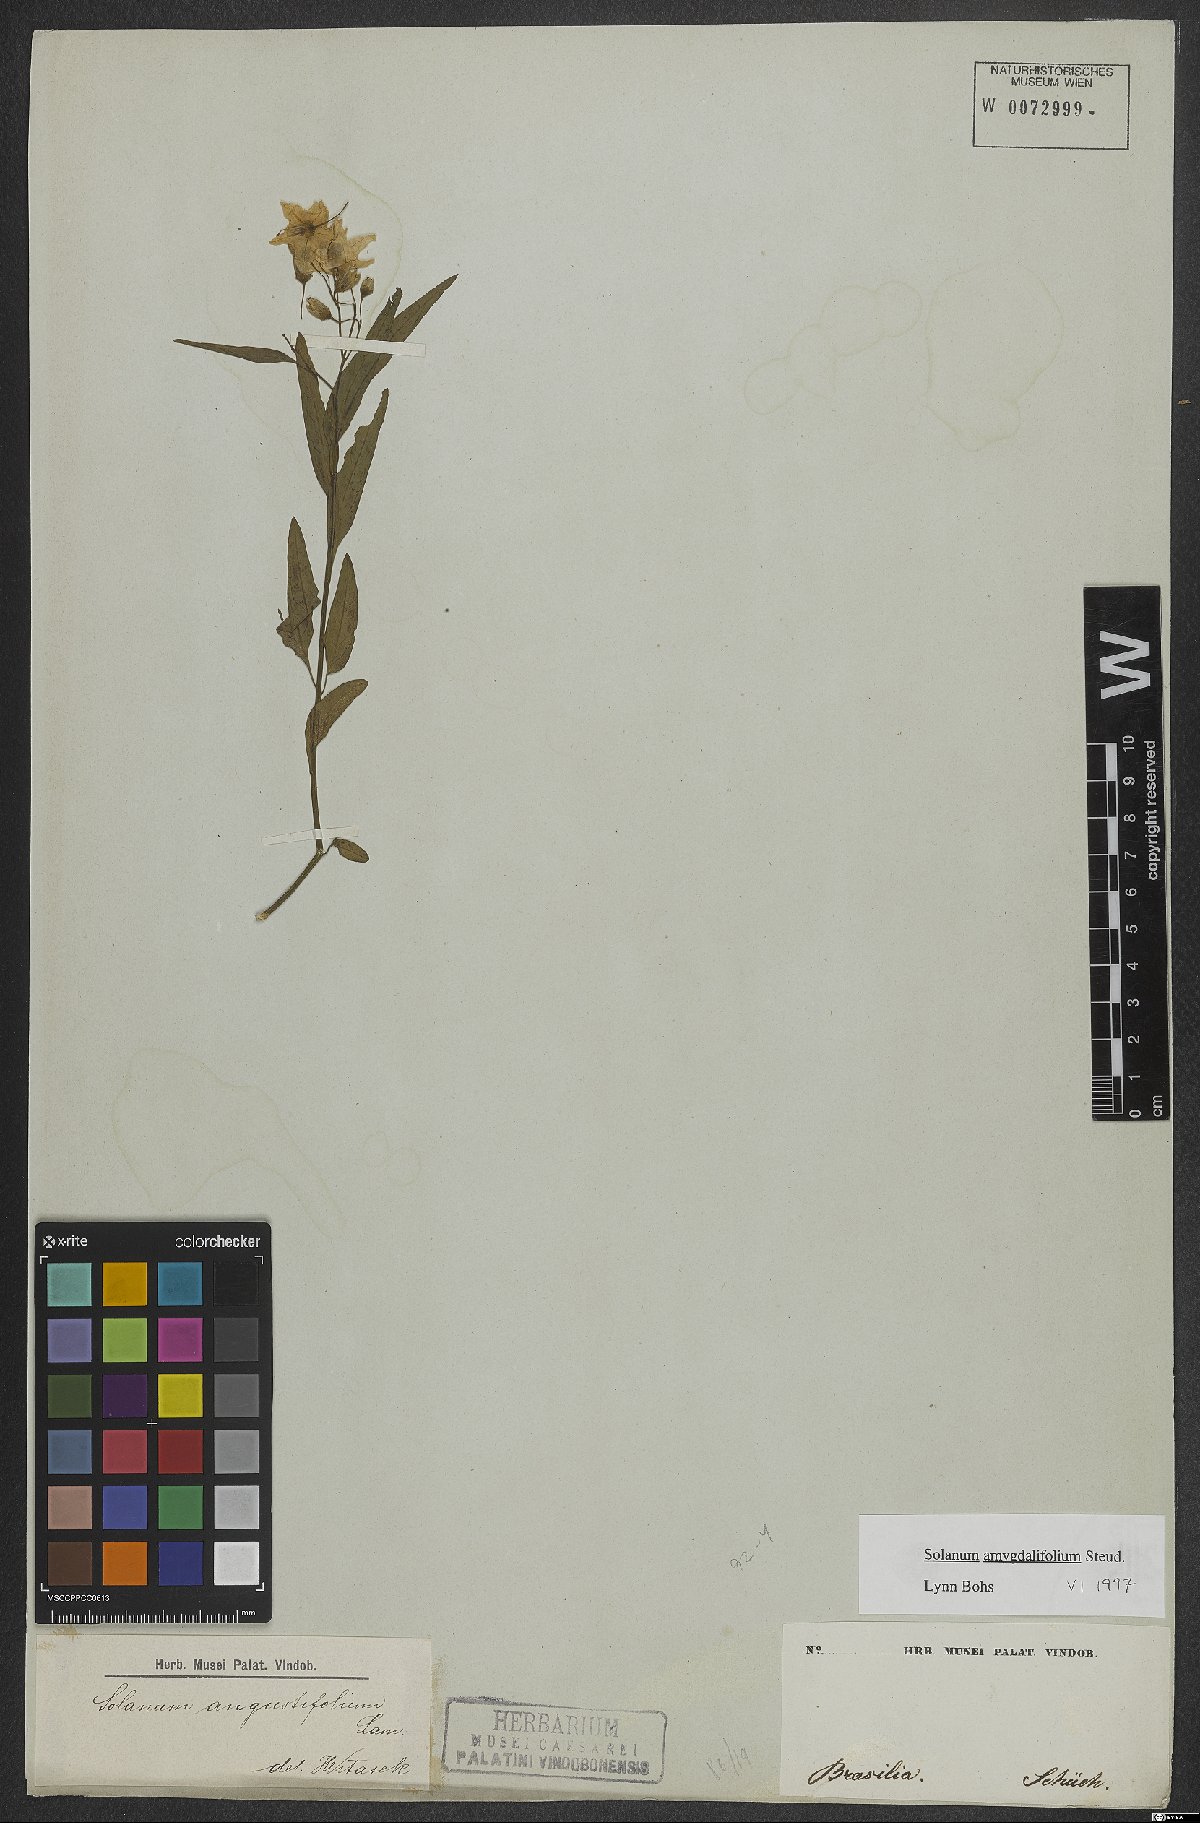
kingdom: Plantae
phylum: Tracheophyta
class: Magnoliopsida
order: Solanales
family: Solanaceae
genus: Solanum
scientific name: Solanum amygdalifolium
